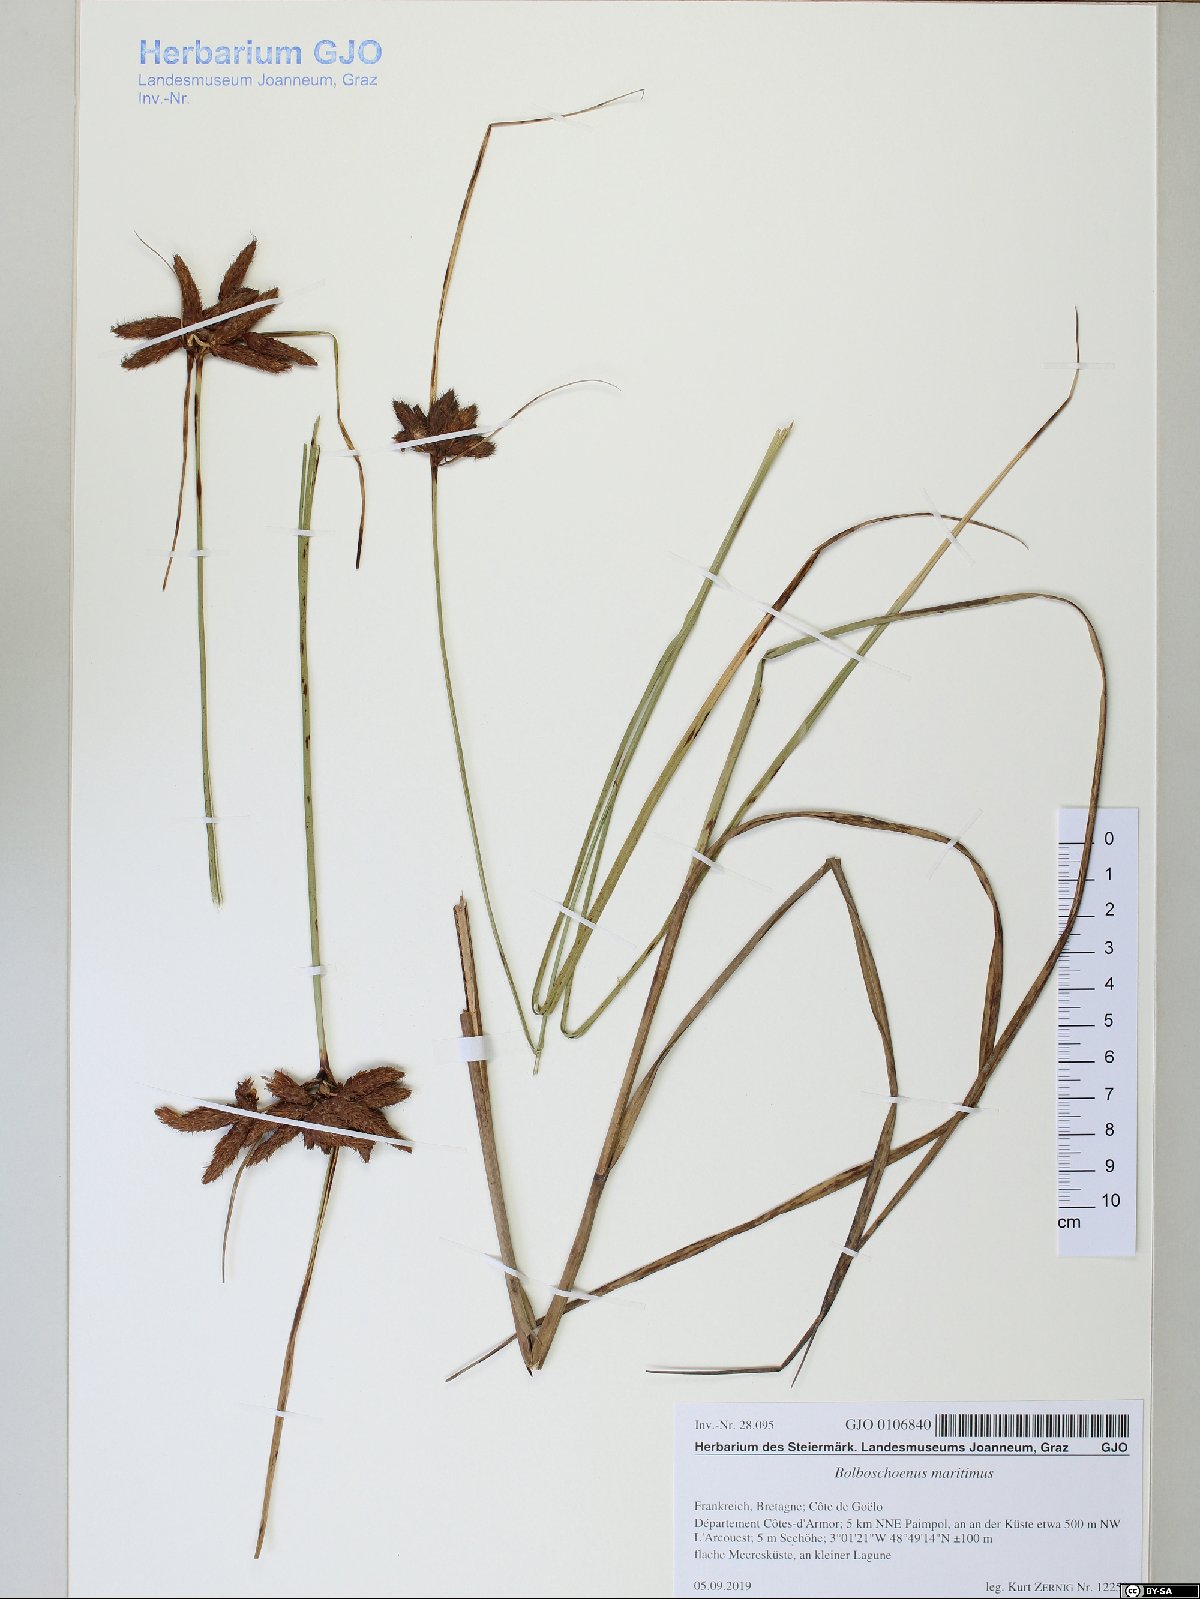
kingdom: Plantae
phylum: Tracheophyta
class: Liliopsida
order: Poales
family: Cyperaceae
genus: Bolboschoenus
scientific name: Bolboschoenus maritimus
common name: Sea club-rush
